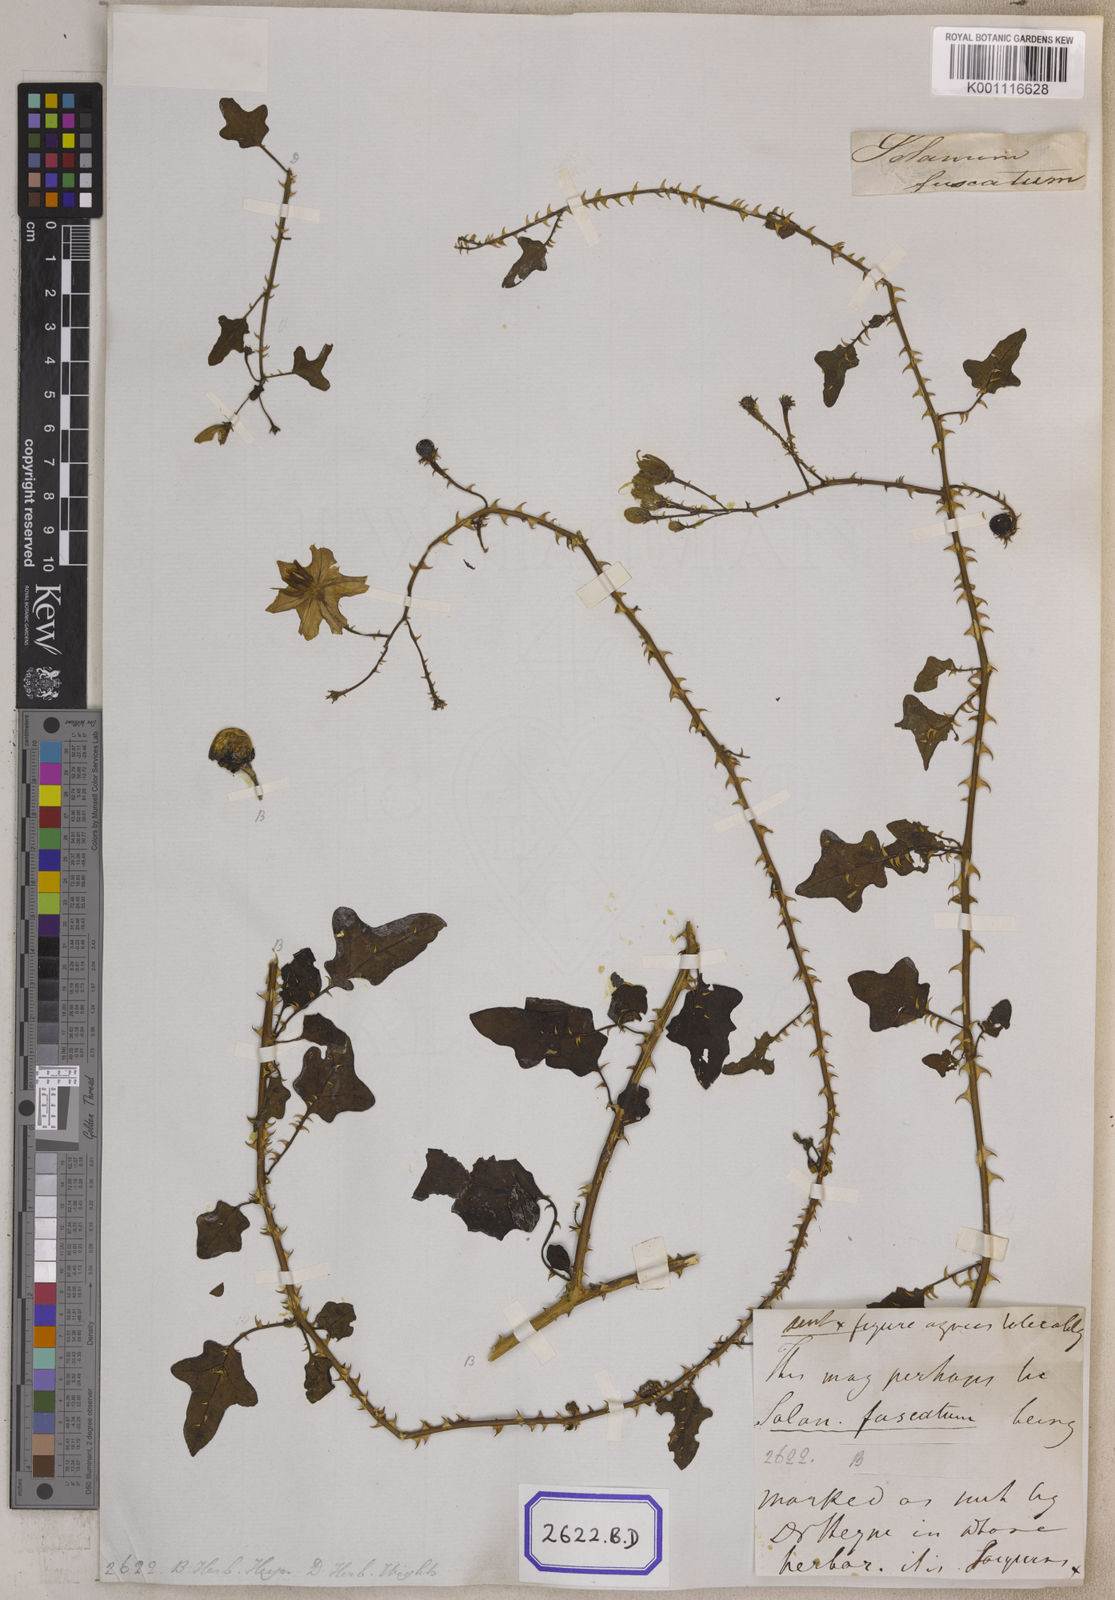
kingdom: Plantae
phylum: Tracheophyta
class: Magnoliopsida
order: Solanales
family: Solanaceae
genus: Solanum
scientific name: Solanum trilobatum
